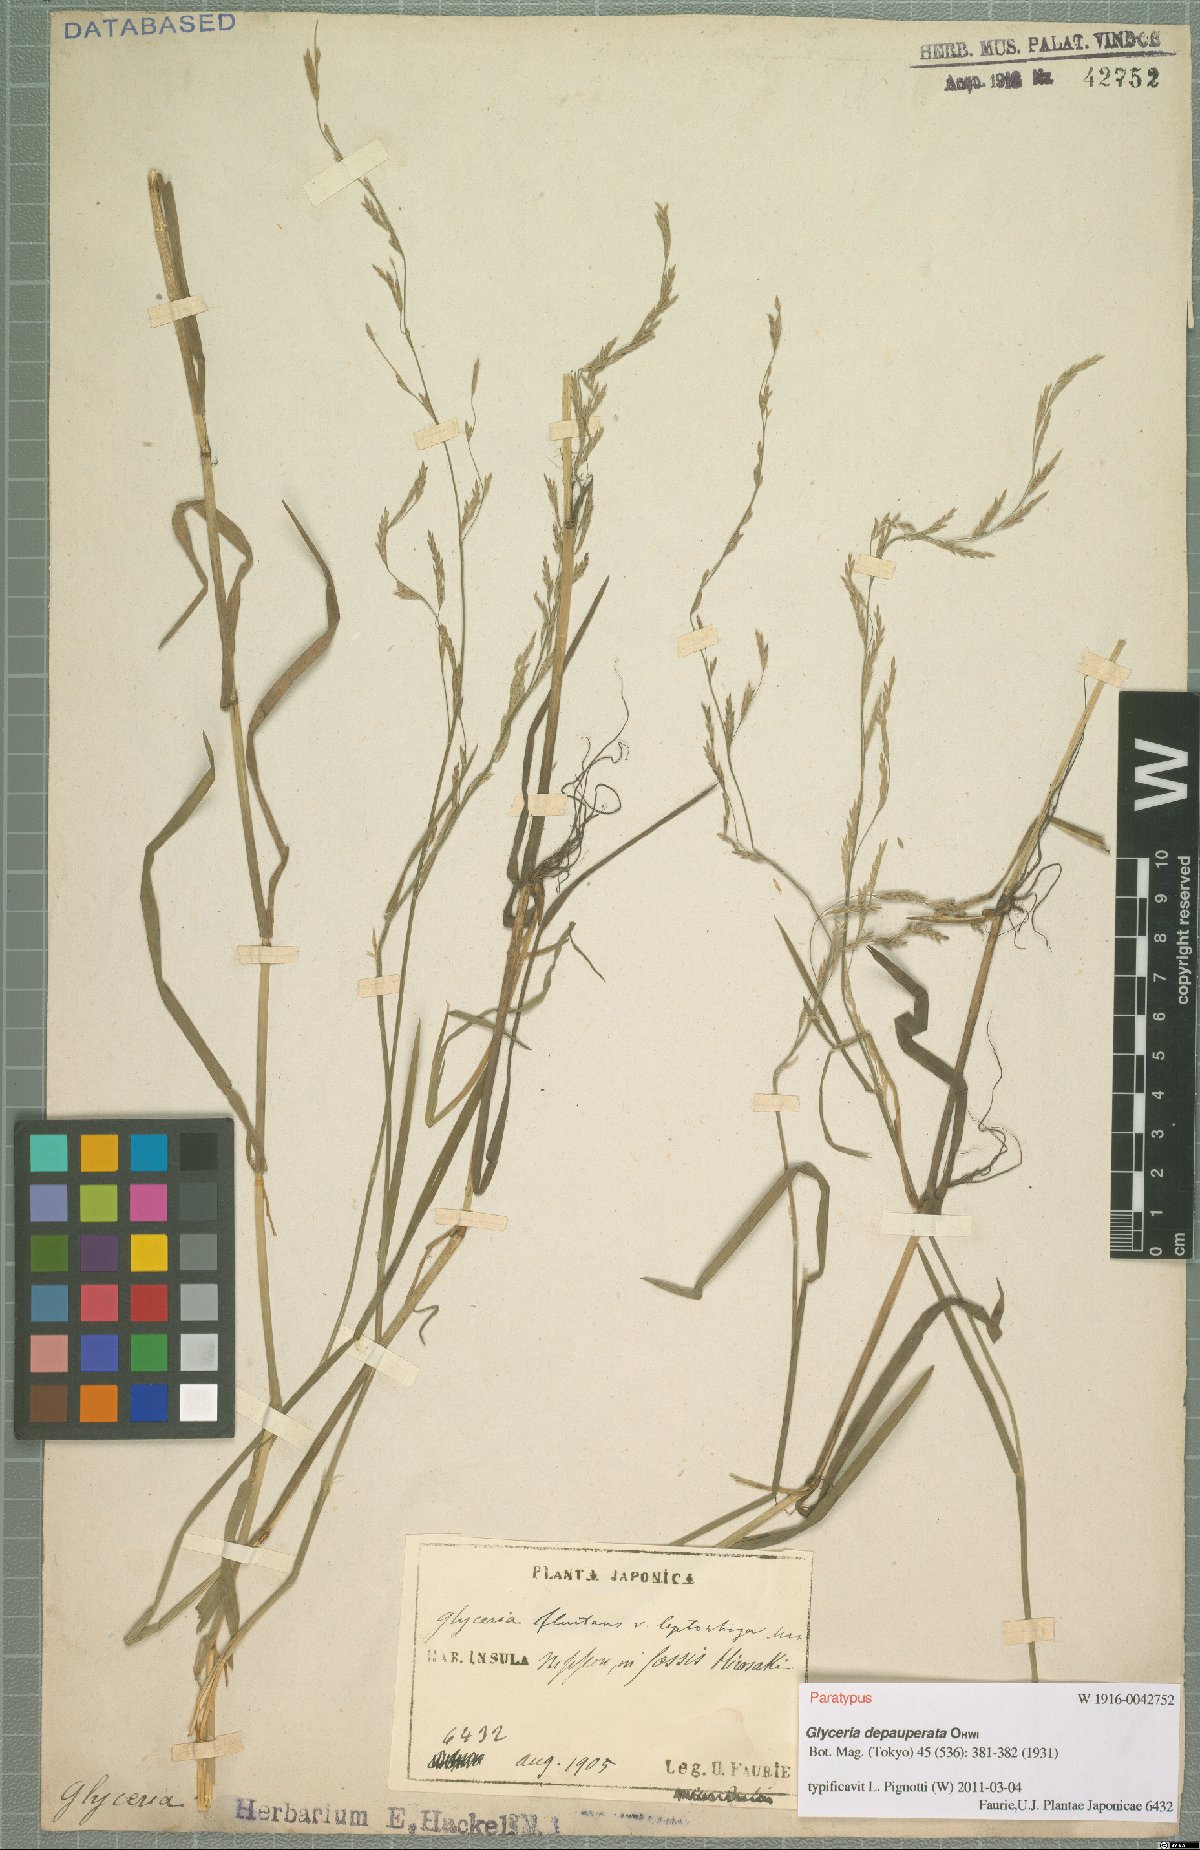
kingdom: Plantae
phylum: Tracheophyta
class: Liliopsida
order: Poales
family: Poaceae
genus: Glyceria
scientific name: Glyceria depauperata
